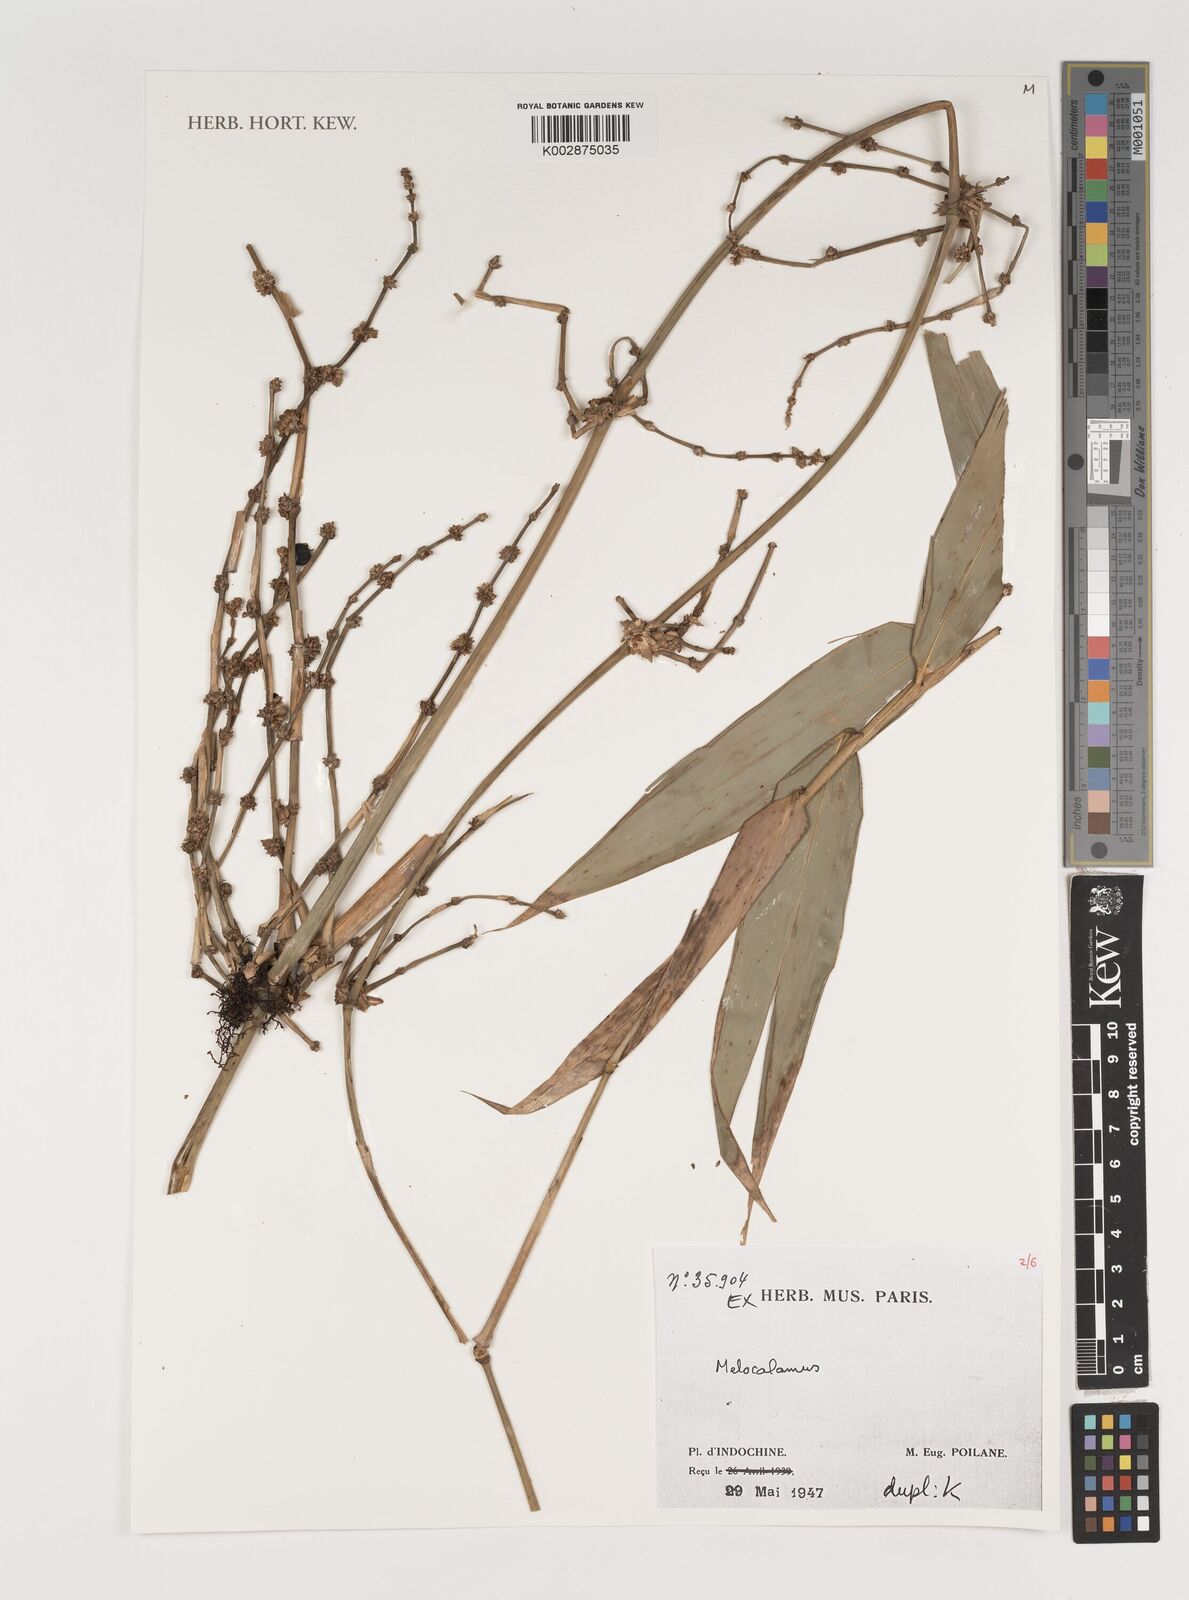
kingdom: Plantae
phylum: Tracheophyta
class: Liliopsida
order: Poales
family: Poaceae
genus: Melocalamus
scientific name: Melocalamus
